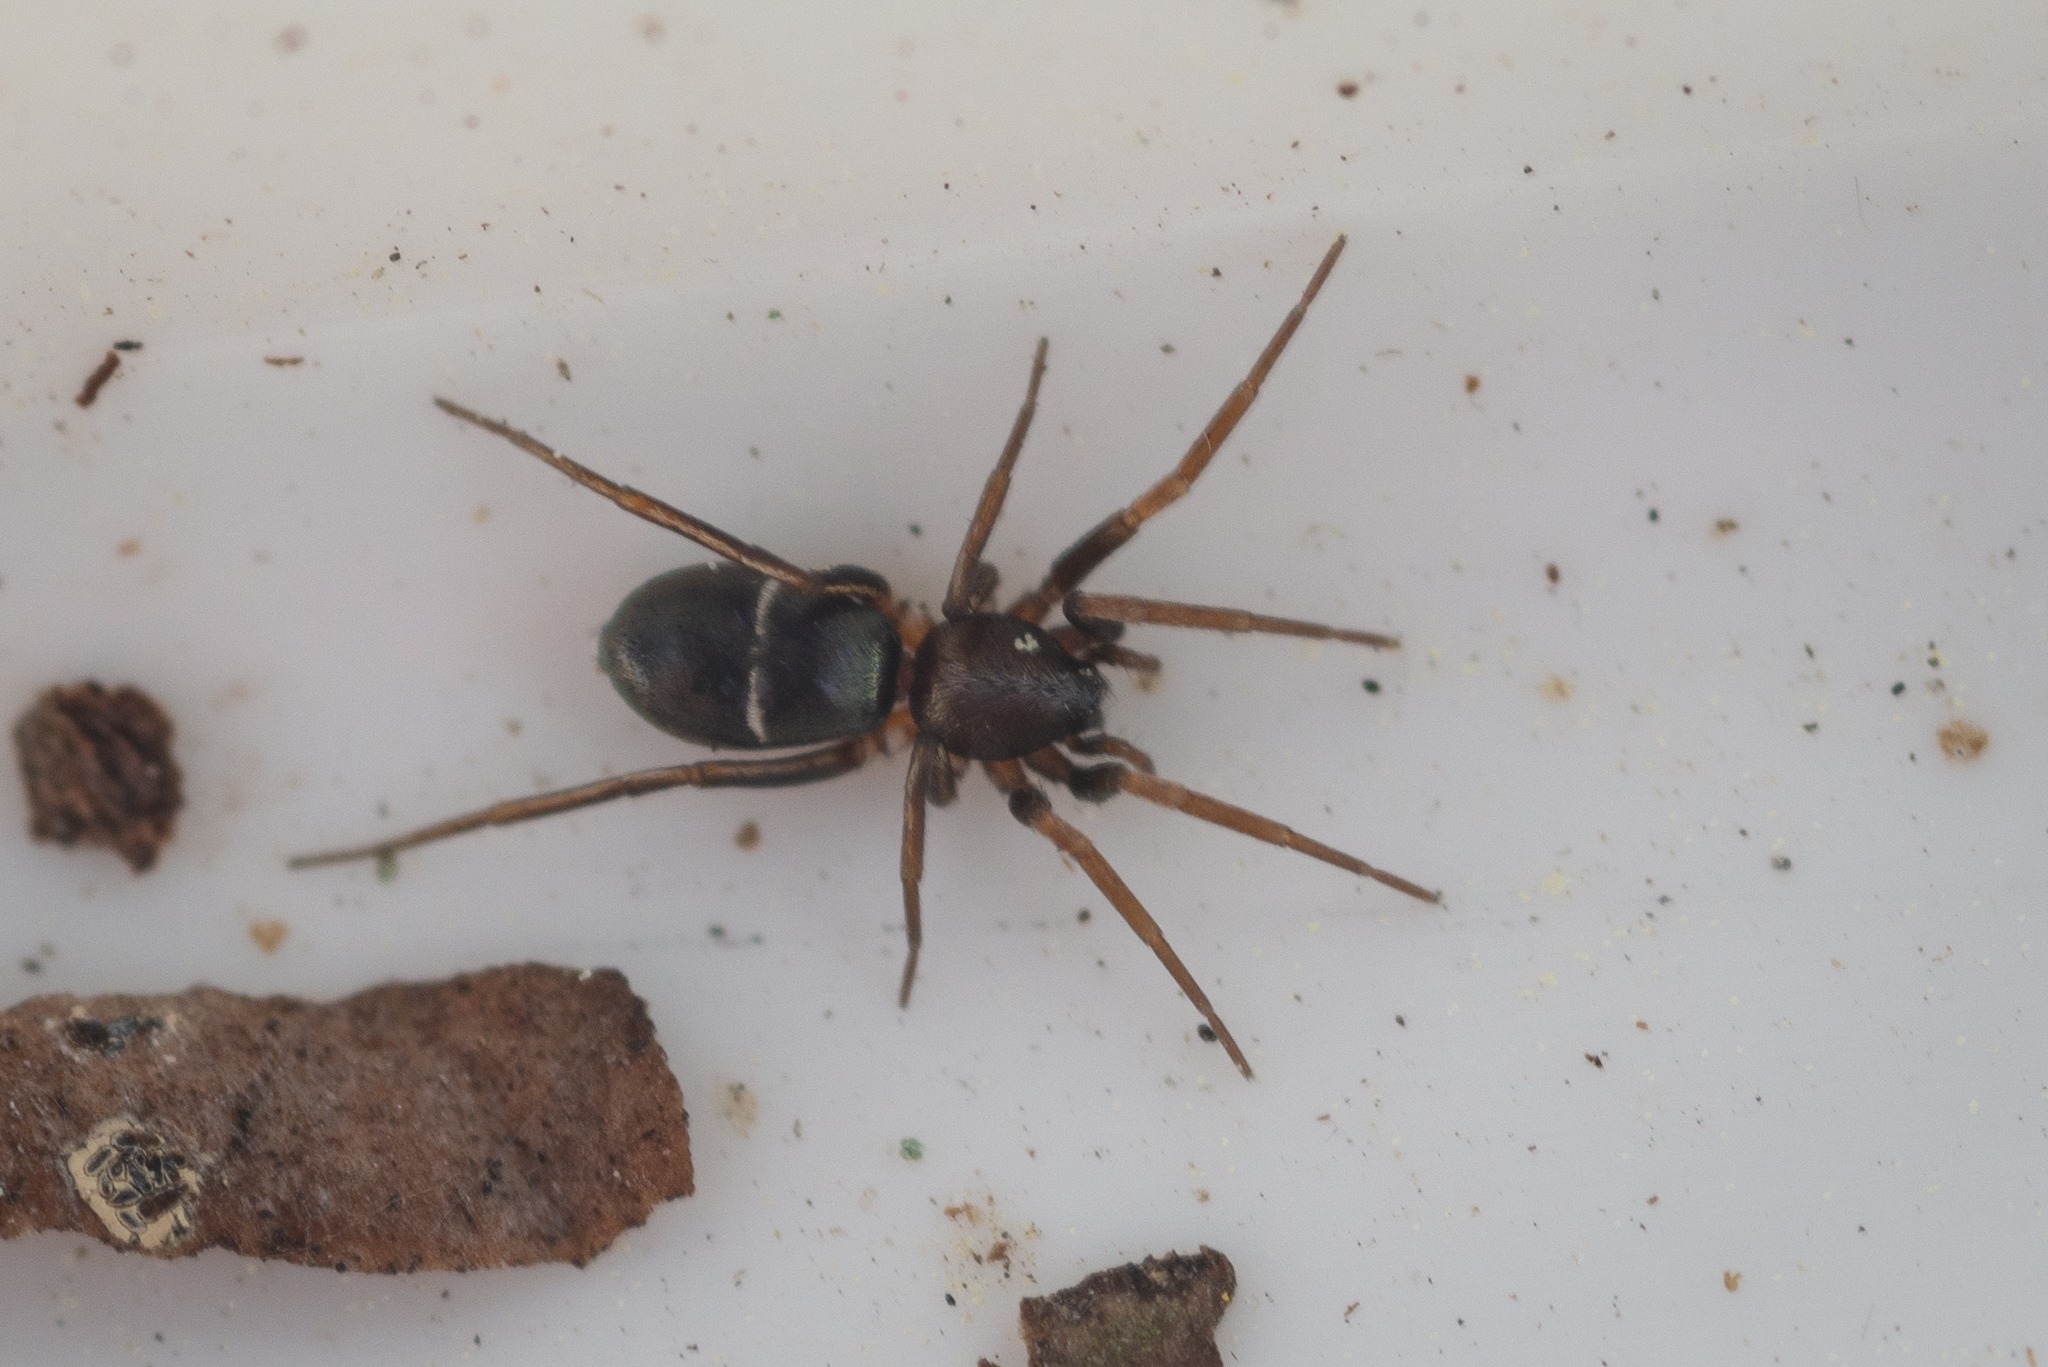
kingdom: Animalia
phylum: Arthropoda
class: Arachnida
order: Araneae
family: Gnaphosidae
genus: Micaria
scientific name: Micaria subopaca
